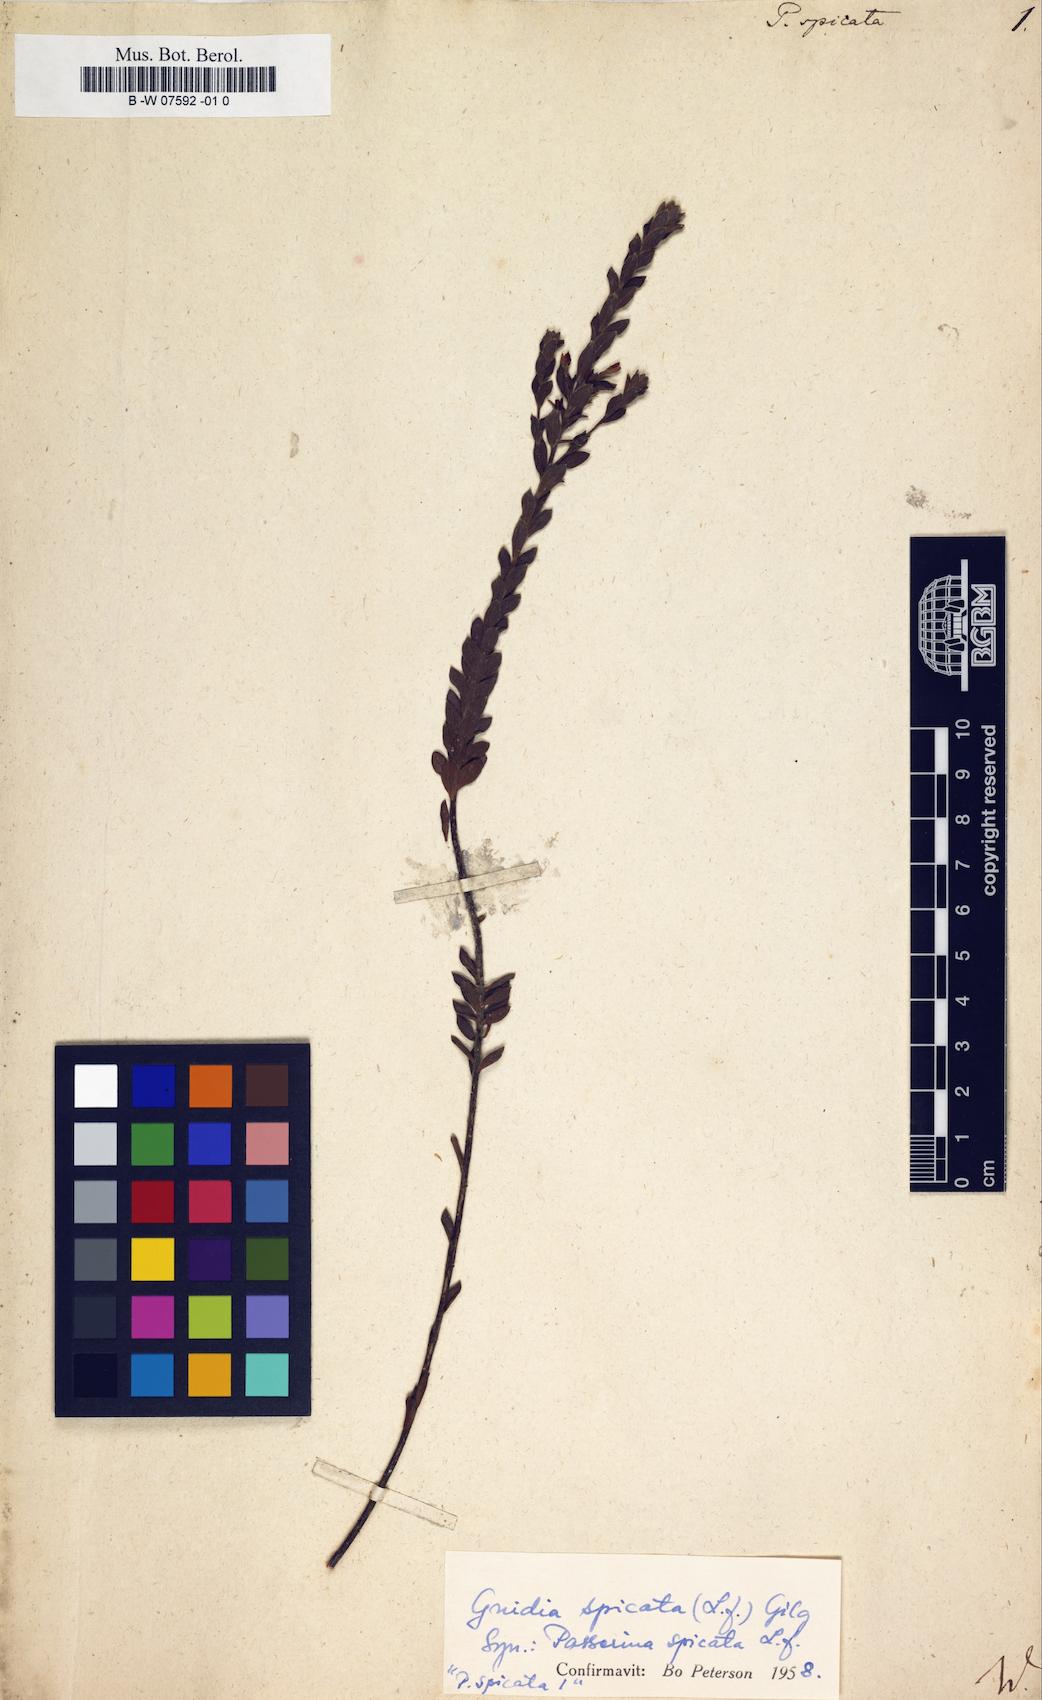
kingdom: Plantae
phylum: Tracheophyta
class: Magnoliopsida
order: Malvales
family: Thymelaeaceae
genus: Gnidia
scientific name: Gnidia spicata
